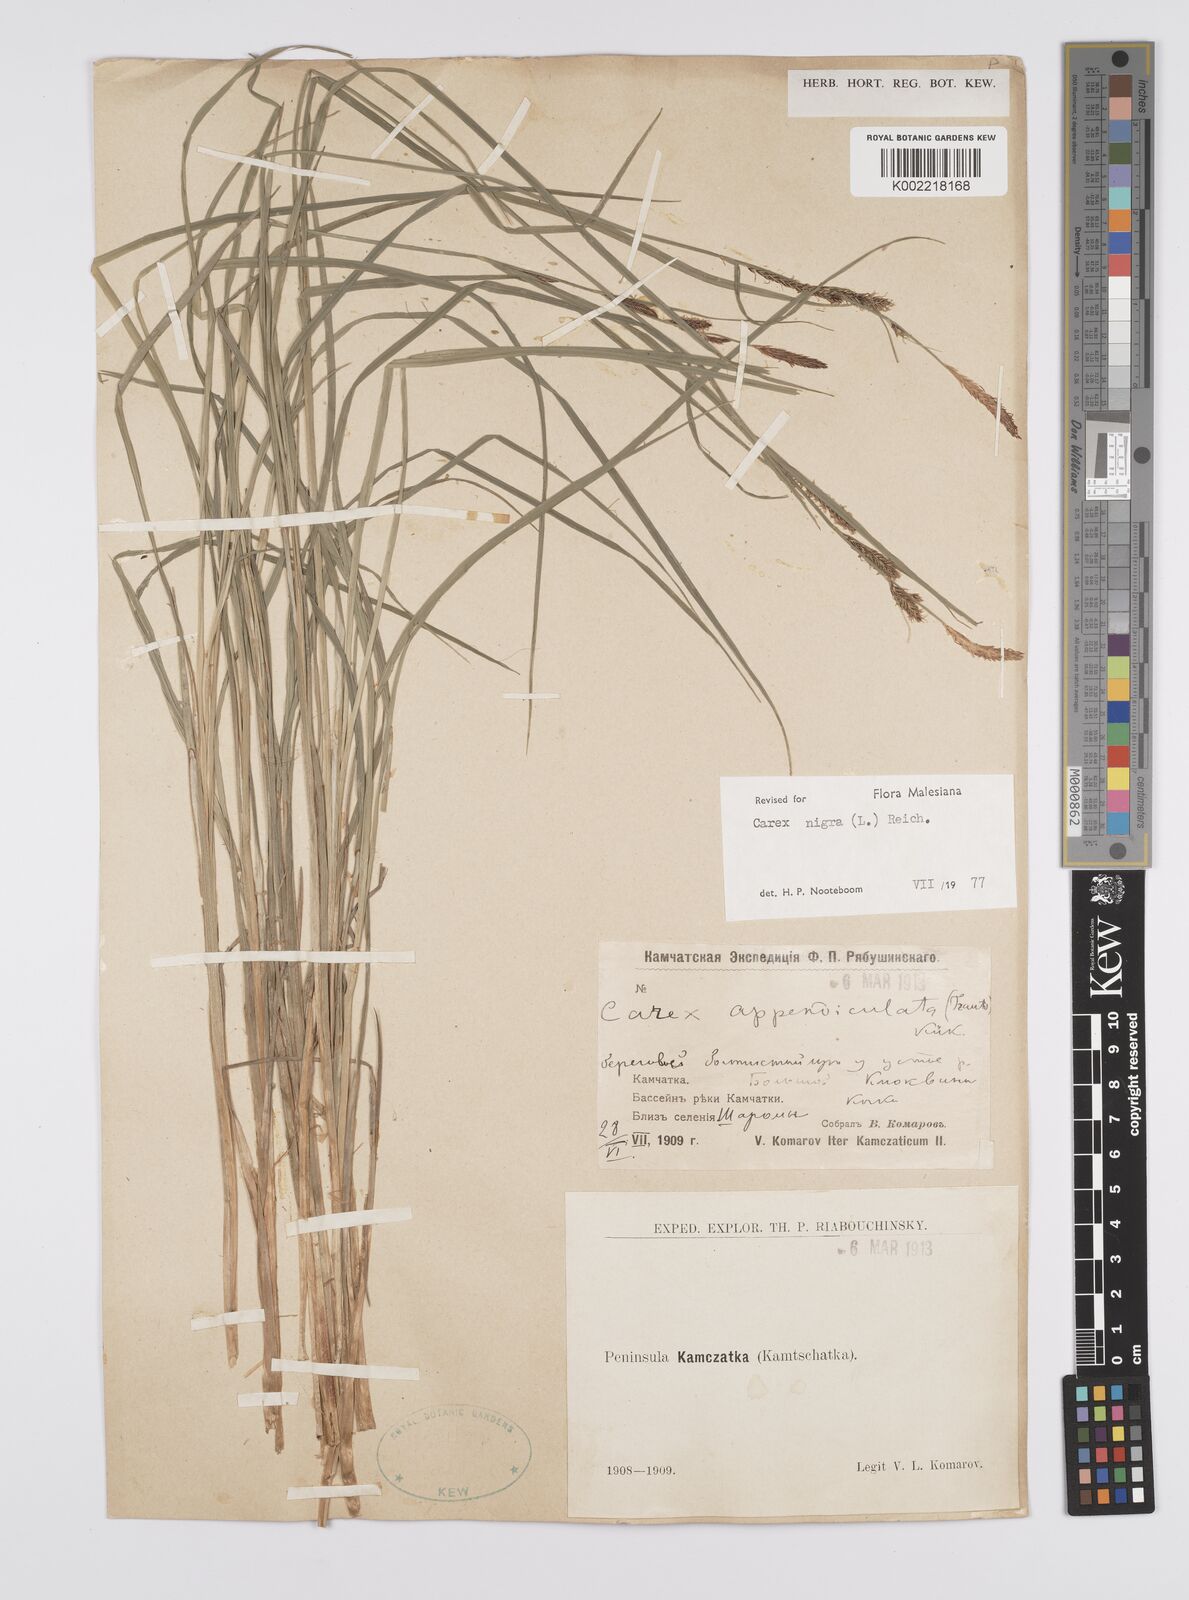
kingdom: Plantae
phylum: Tracheophyta
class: Liliopsida
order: Poales
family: Cyperaceae
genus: Carex
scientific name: Carex nigra
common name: Common sedge
